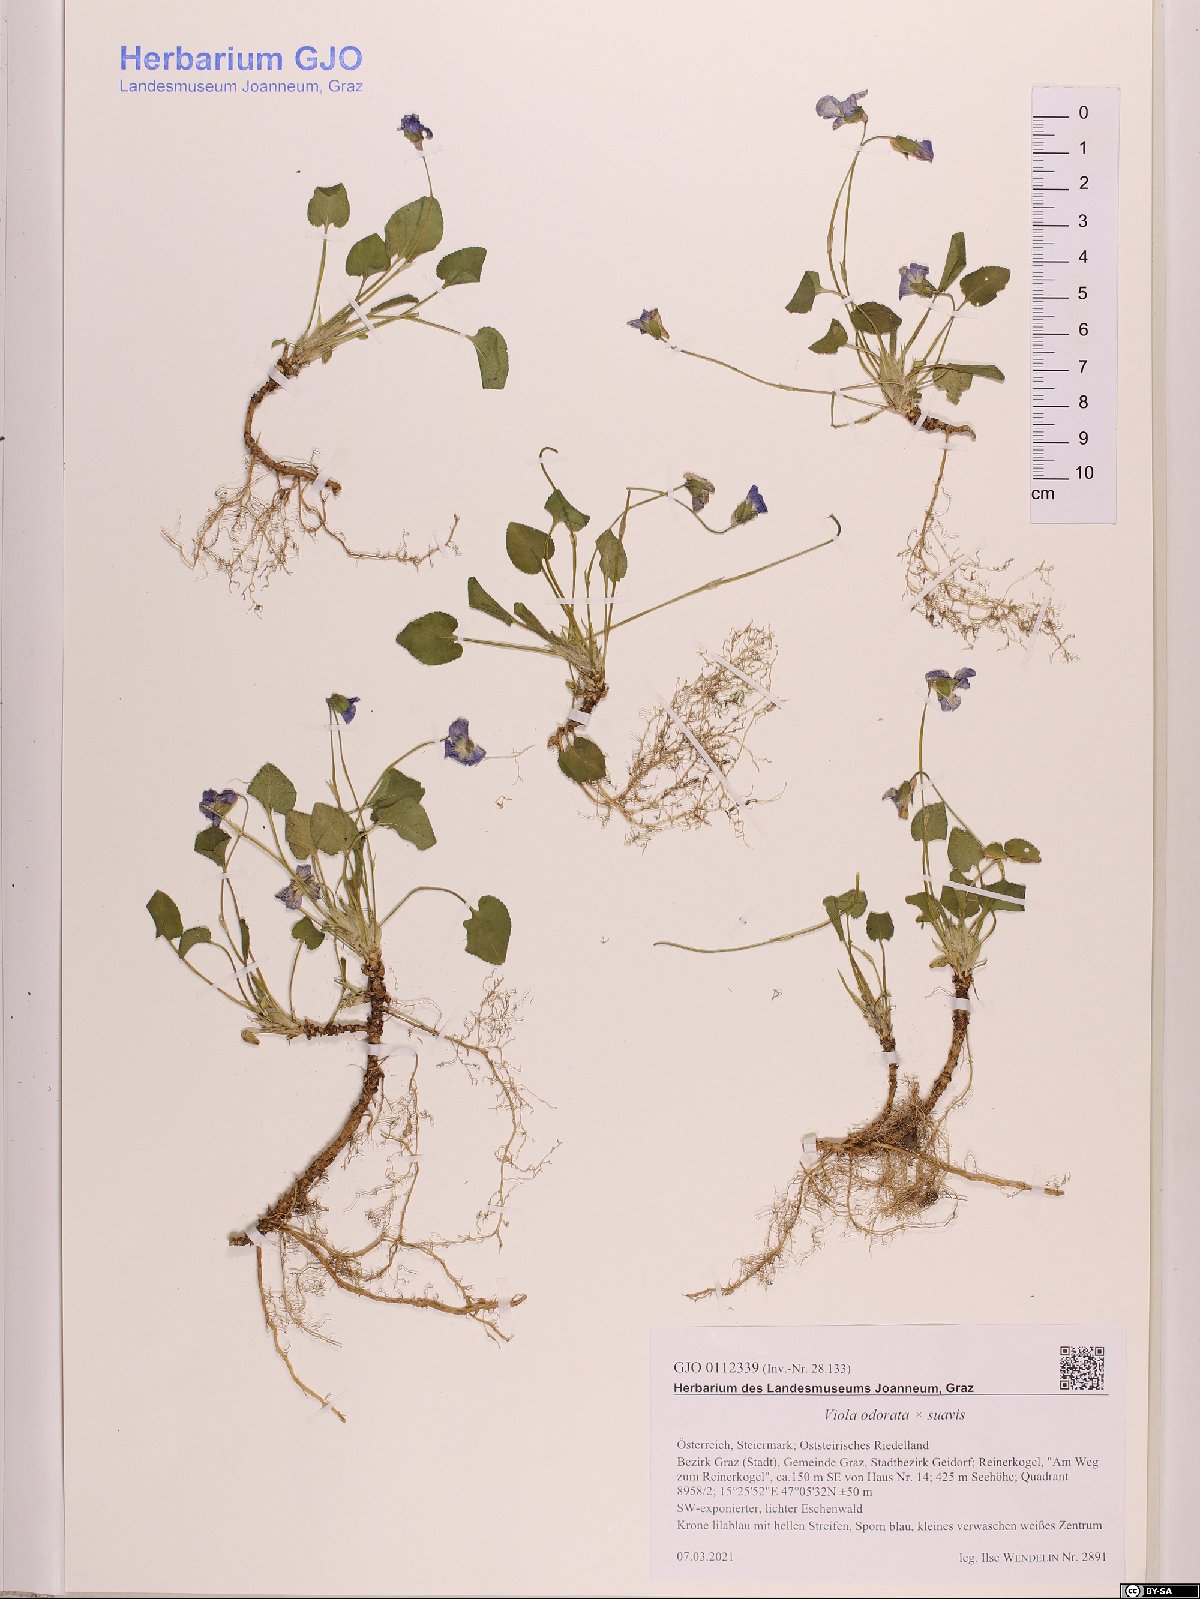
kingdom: Plantae
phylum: Tracheophyta
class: Magnoliopsida
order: Malpighiales
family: Violaceae
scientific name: Violaceae
